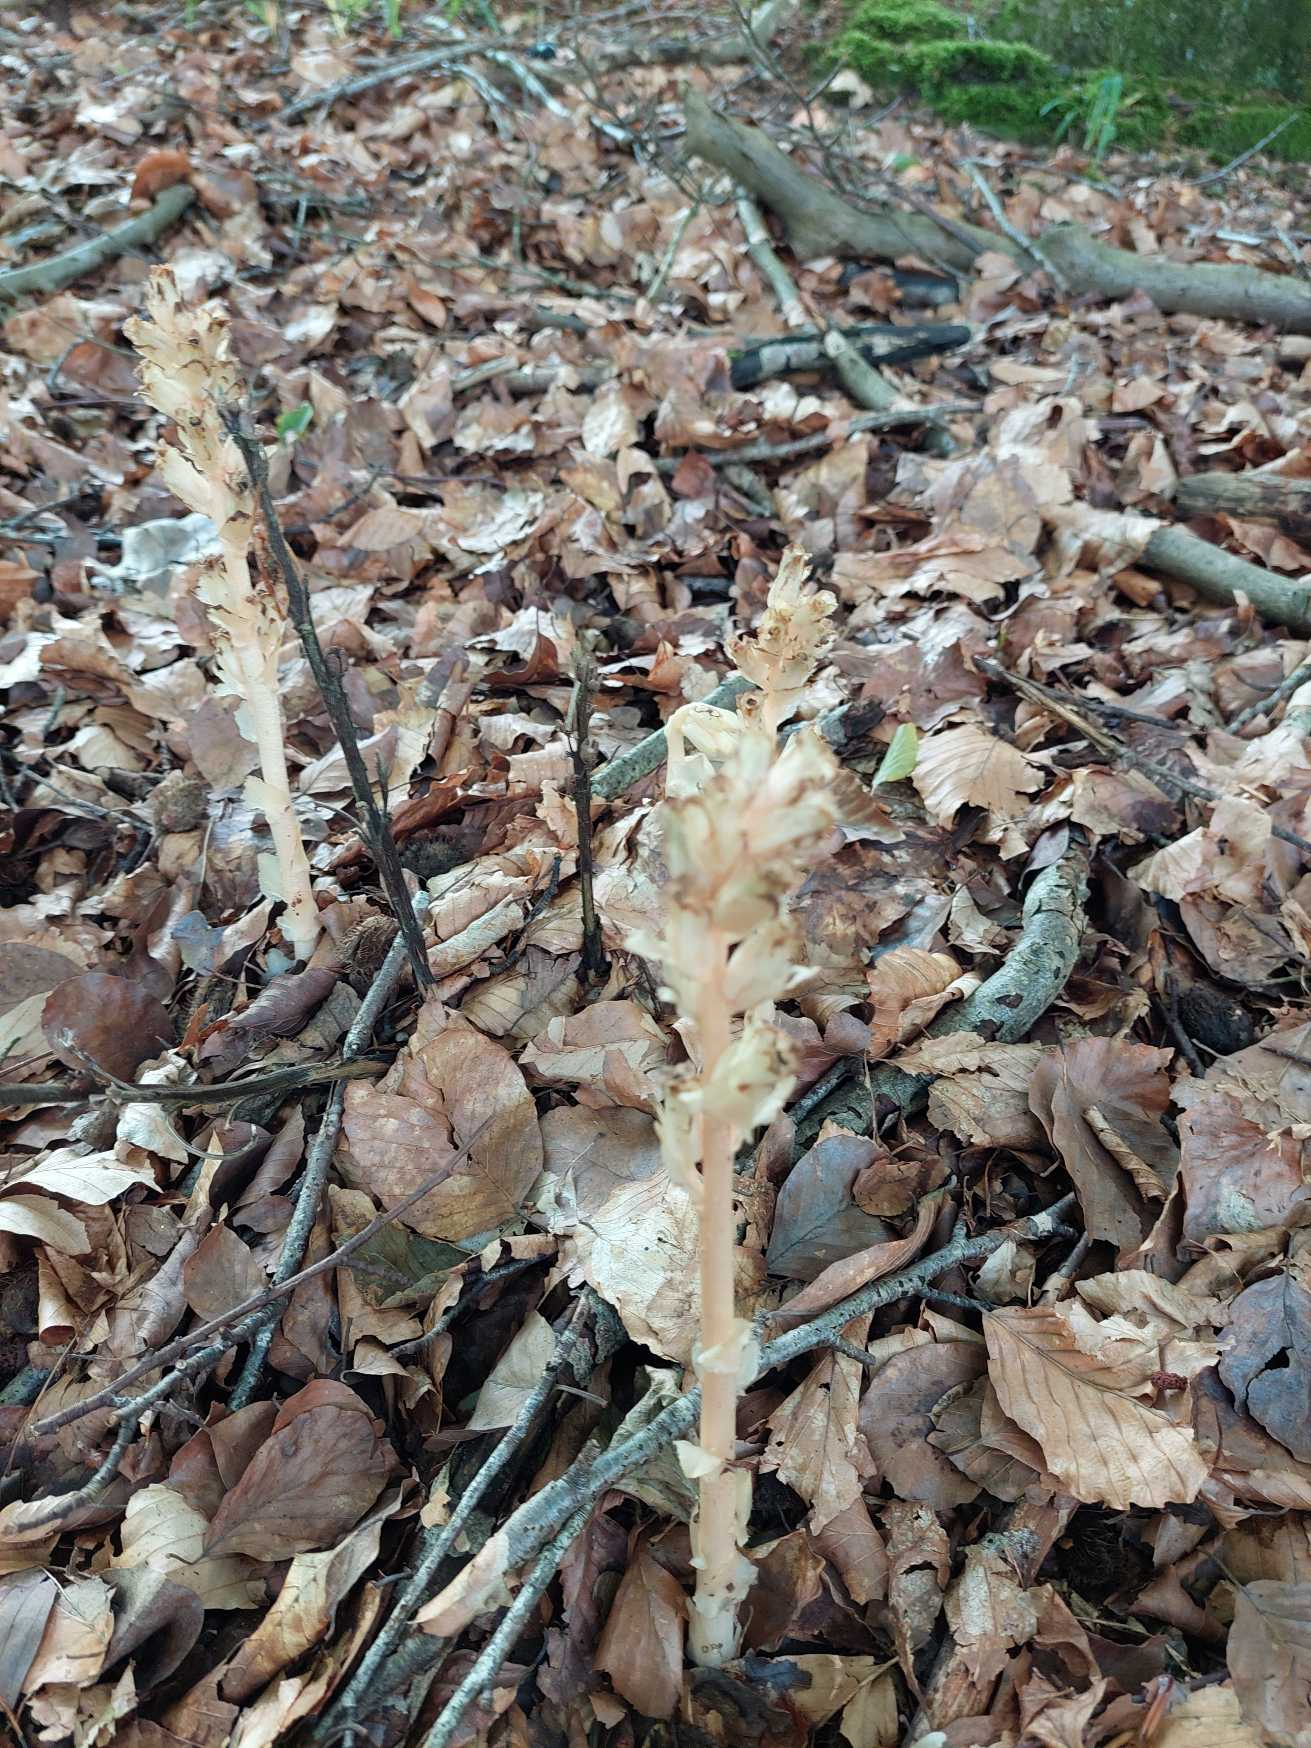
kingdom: Plantae
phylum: Tracheophyta
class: Magnoliopsida
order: Ericales
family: Ericaceae
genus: Hypopitys
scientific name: Hypopitys monotropa
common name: Snylterod
